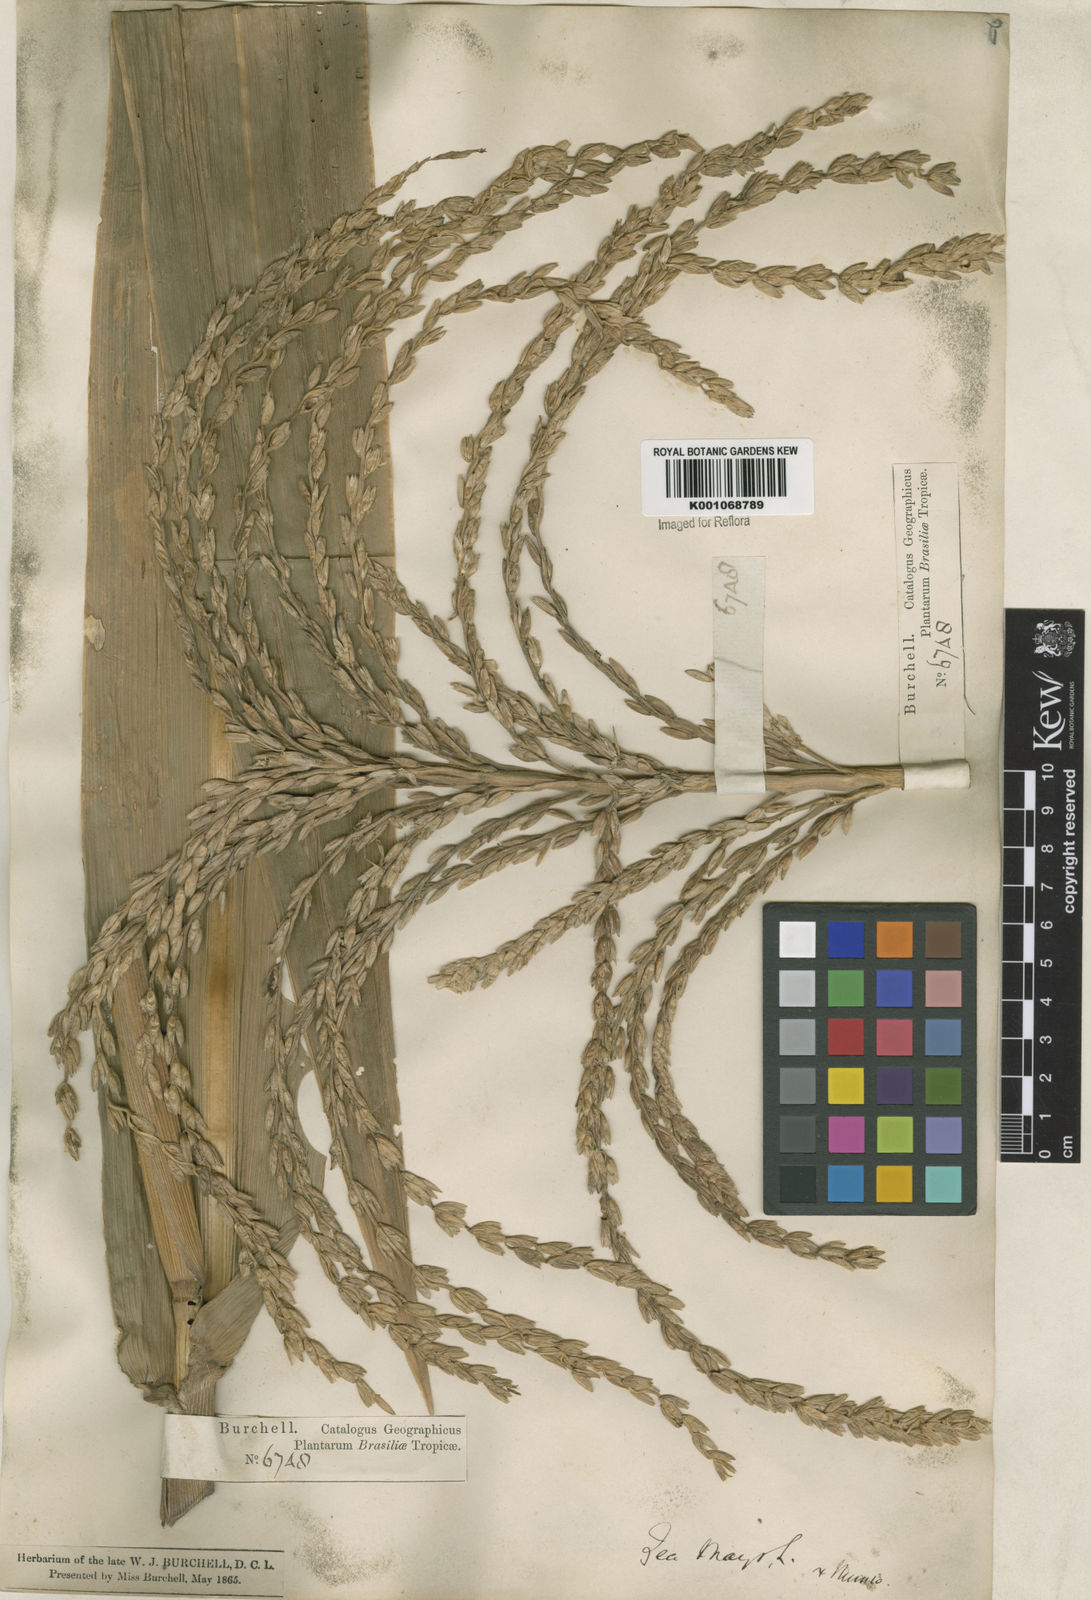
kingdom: Plantae
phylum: Tracheophyta
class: Liliopsida
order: Poales
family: Poaceae
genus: Zea
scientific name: Zea mays
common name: Maize
